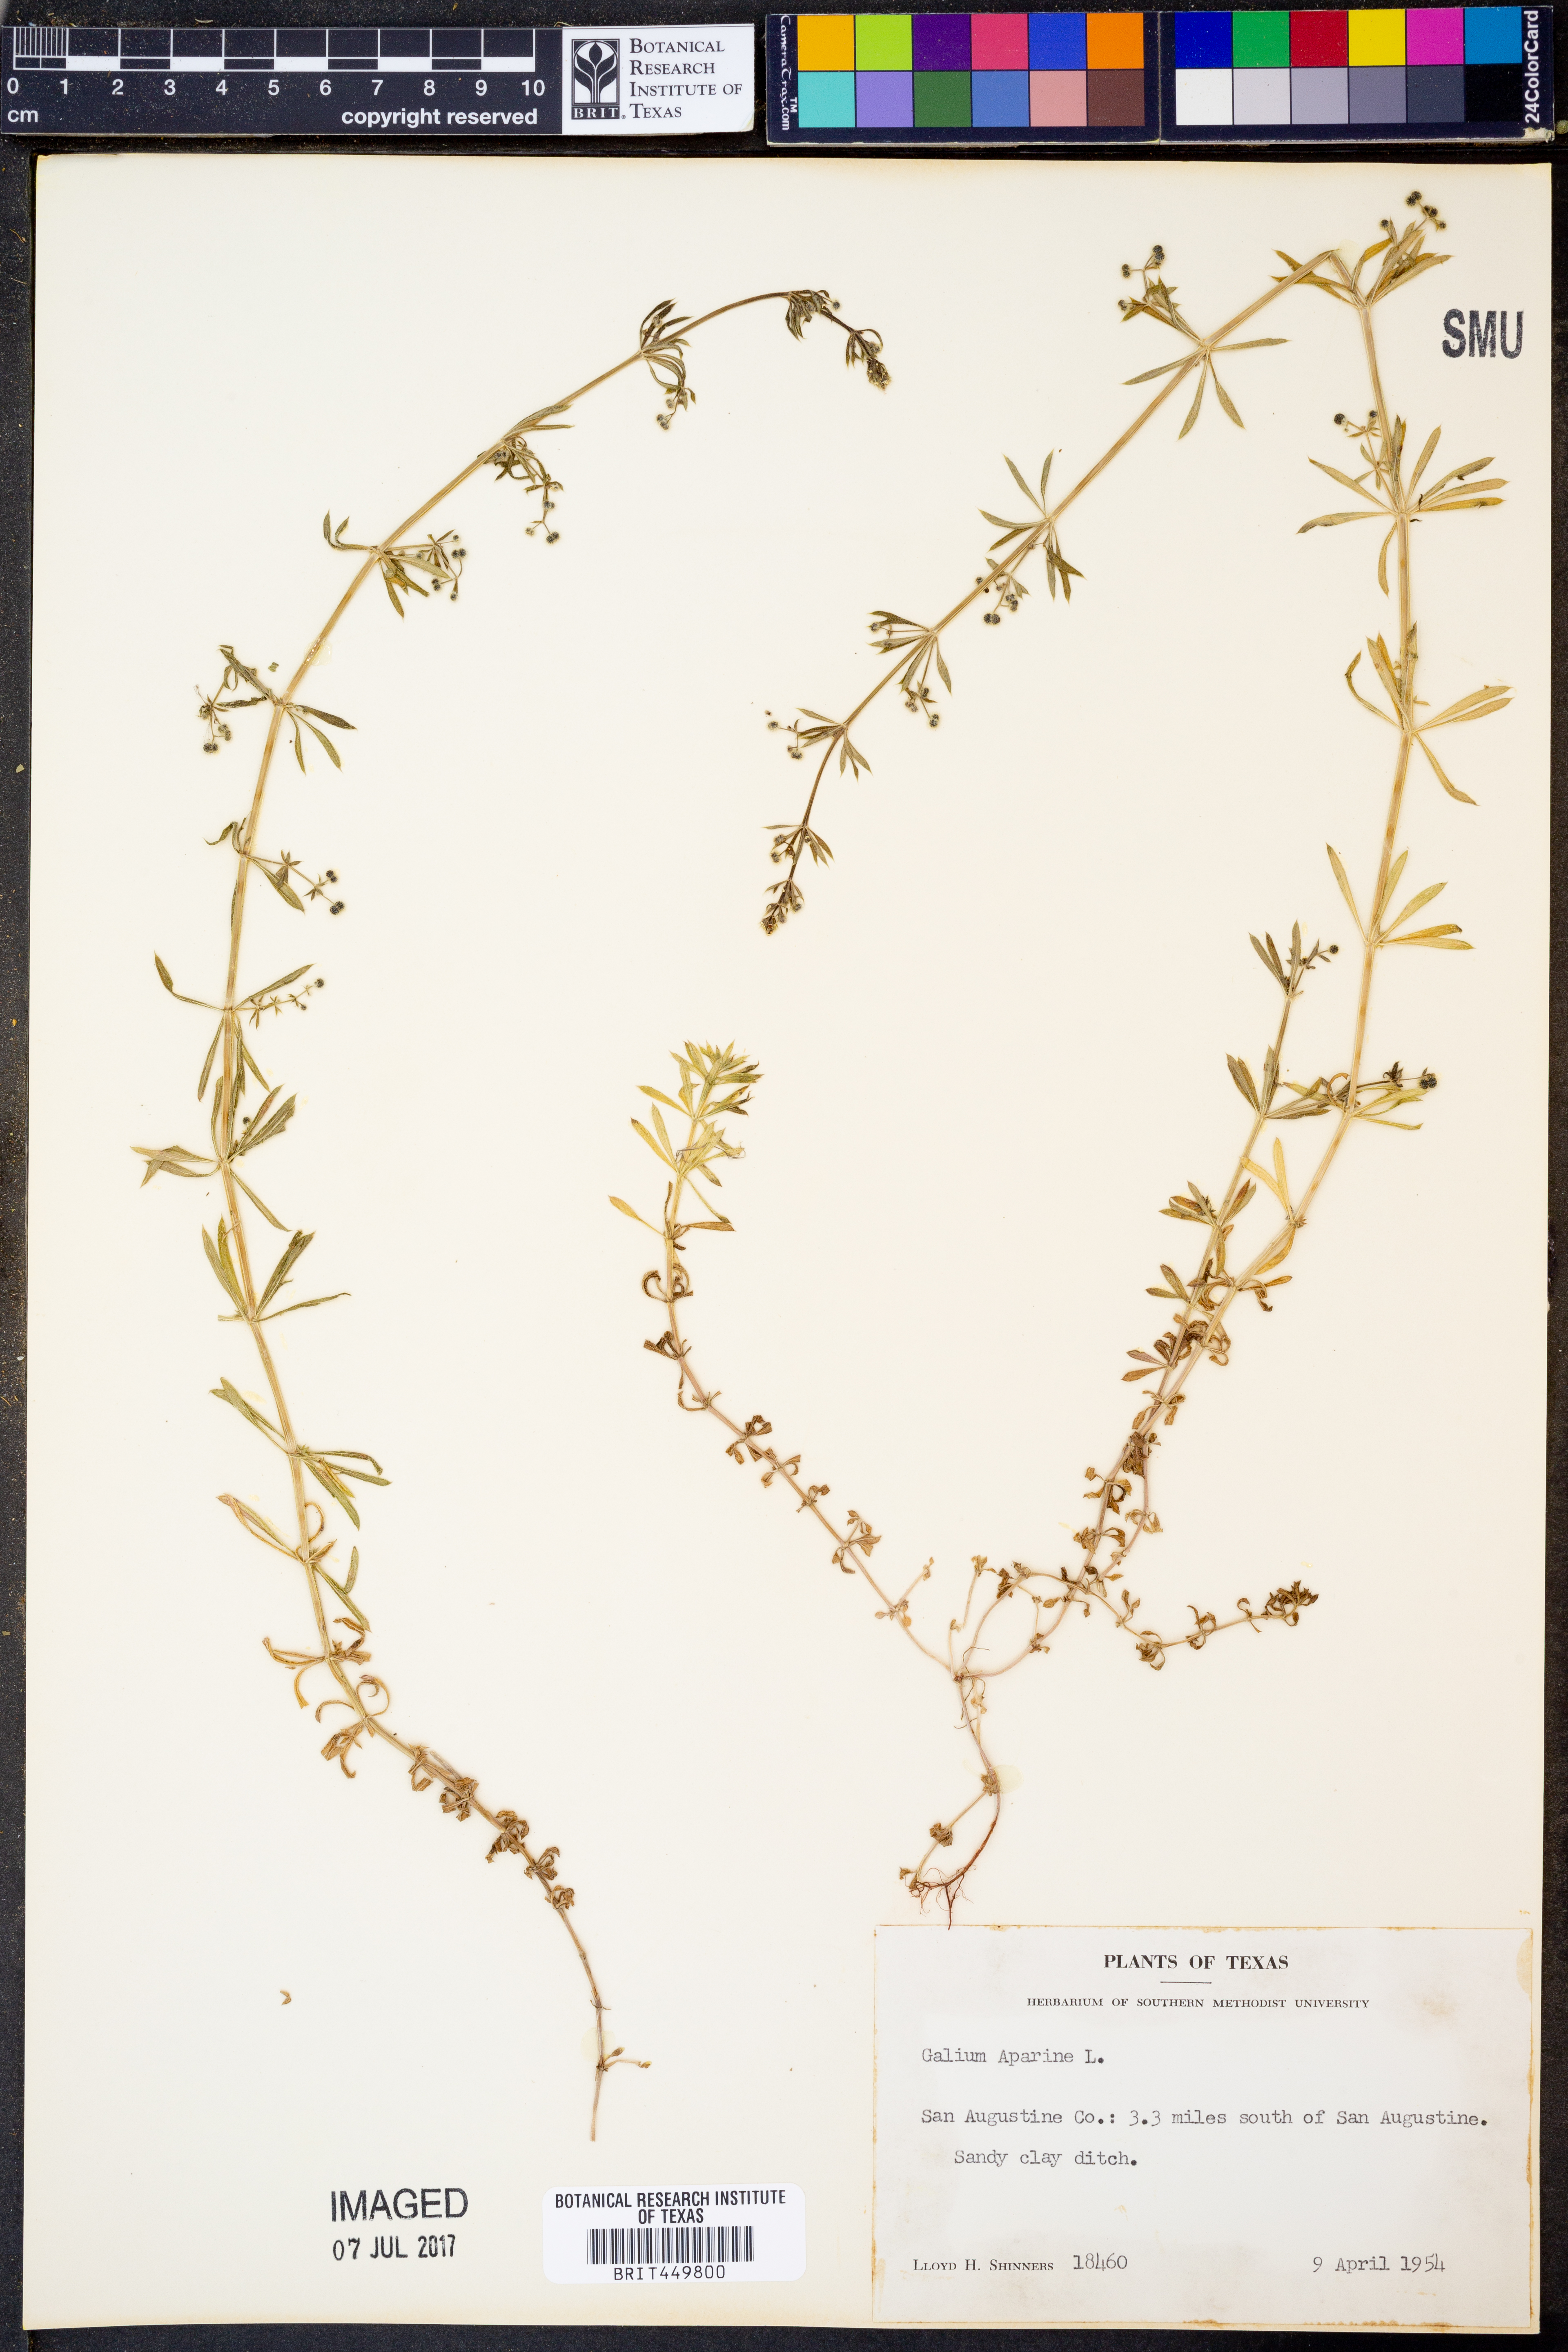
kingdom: Plantae
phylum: Tracheophyta
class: Magnoliopsida
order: Gentianales
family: Rubiaceae
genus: Galium
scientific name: Galium aparine
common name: Cleavers
